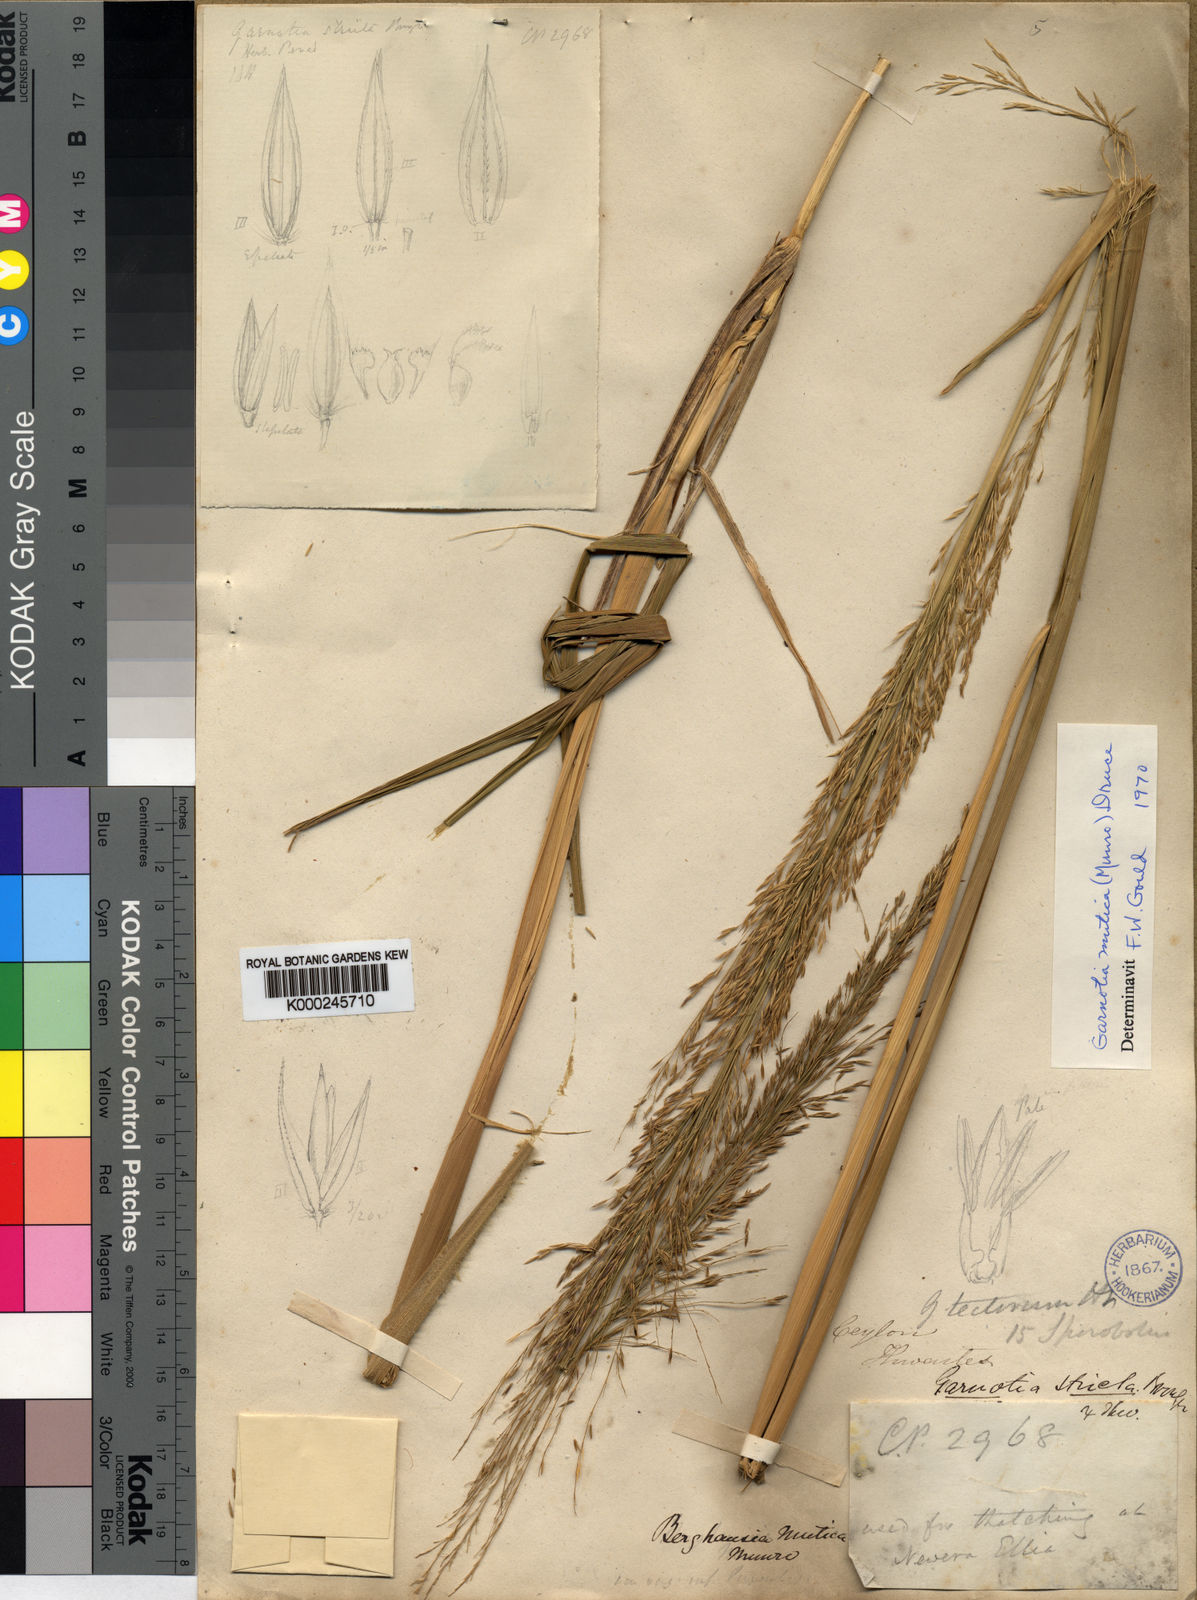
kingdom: Plantae
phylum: Tracheophyta
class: Liliopsida
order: Poales
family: Poaceae
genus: Garnotia
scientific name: Garnotia patula
